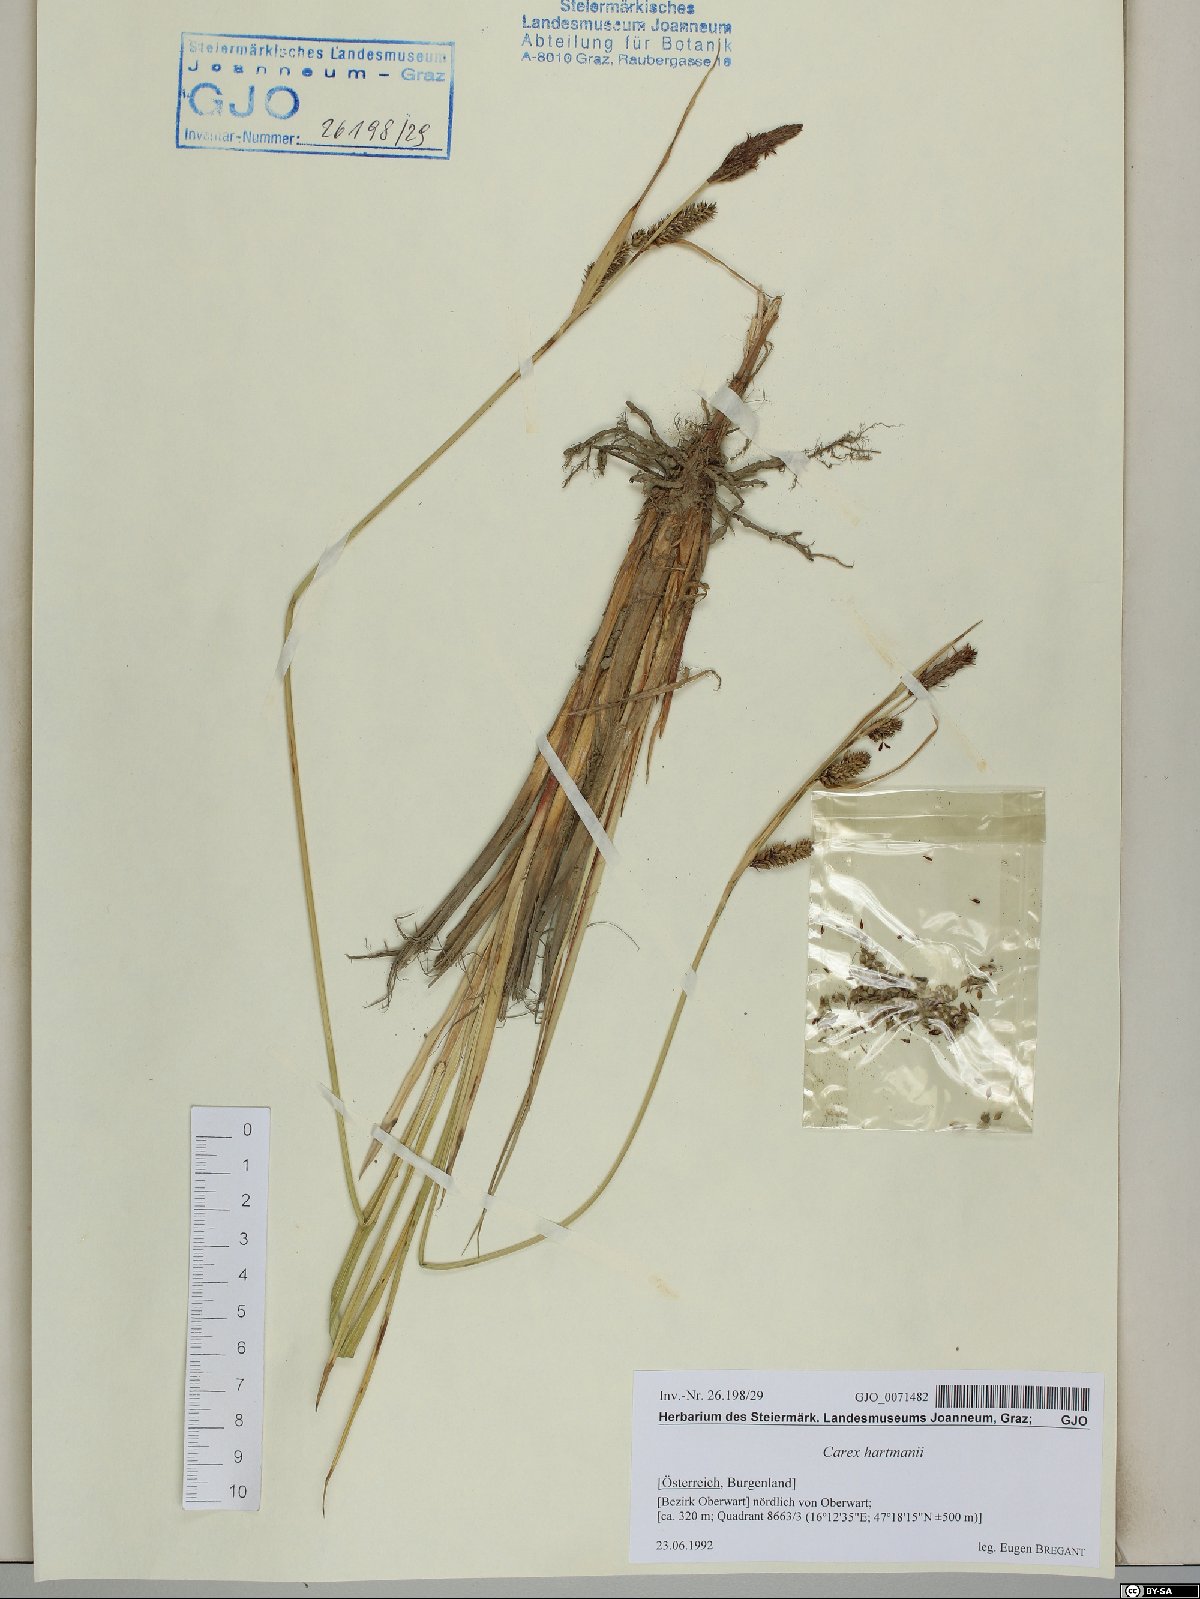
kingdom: Plantae
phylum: Tracheophyta
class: Liliopsida
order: Poales
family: Cyperaceae
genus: Carex
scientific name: Carex hartmaniorum
